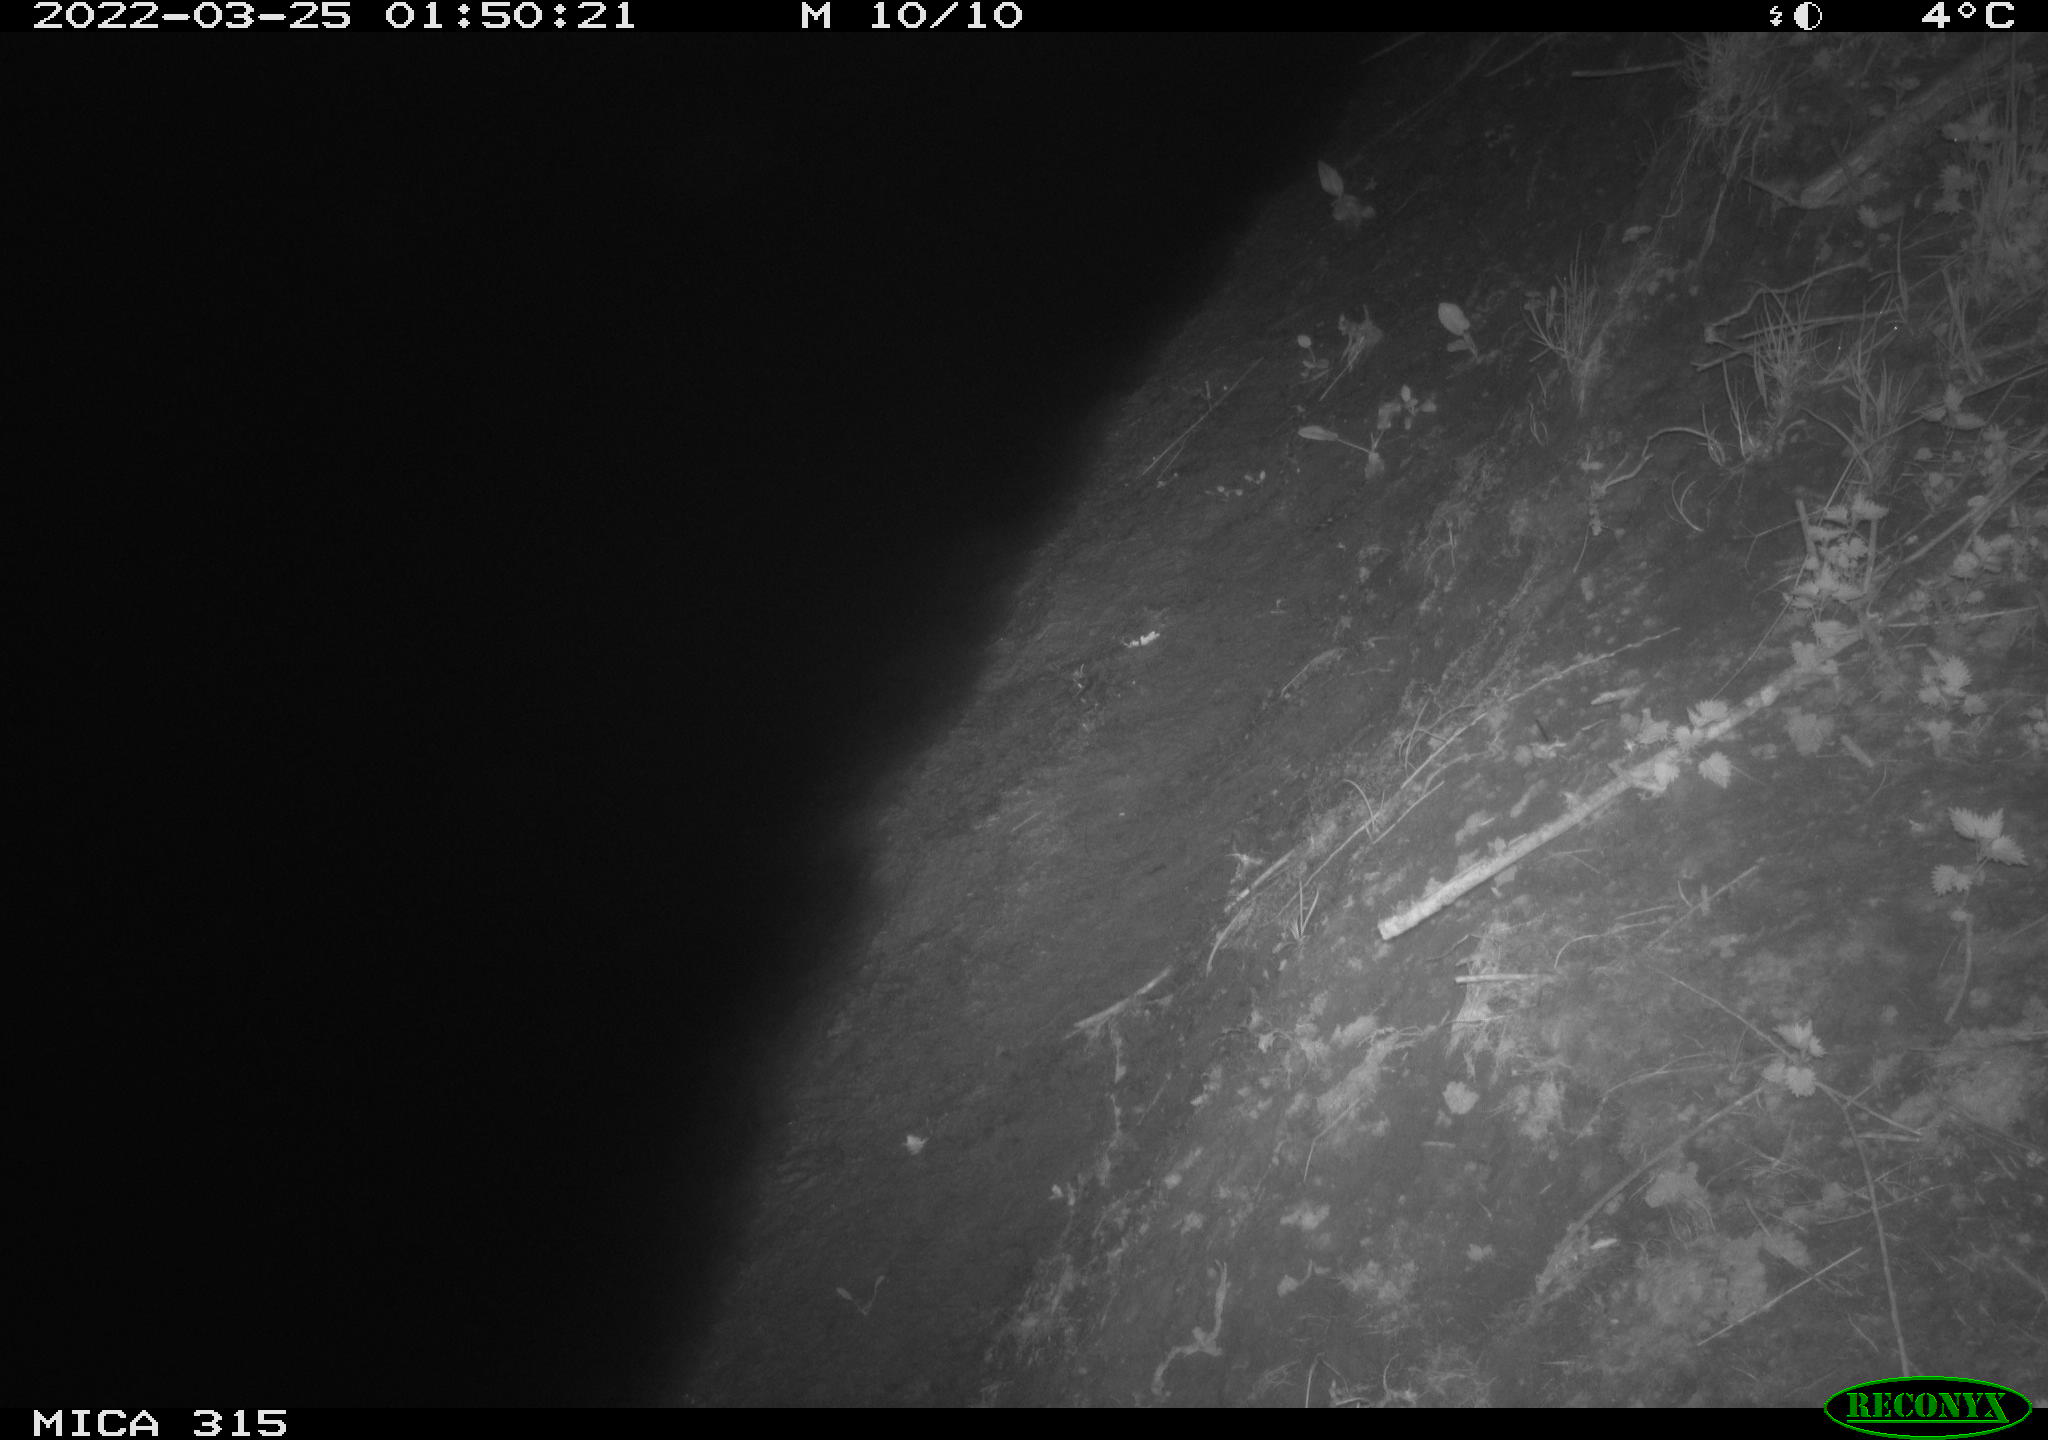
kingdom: Animalia
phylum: Chordata
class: Aves
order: Anseriformes
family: Anatidae
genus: Anas
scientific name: Anas platyrhynchos
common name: Mallard
